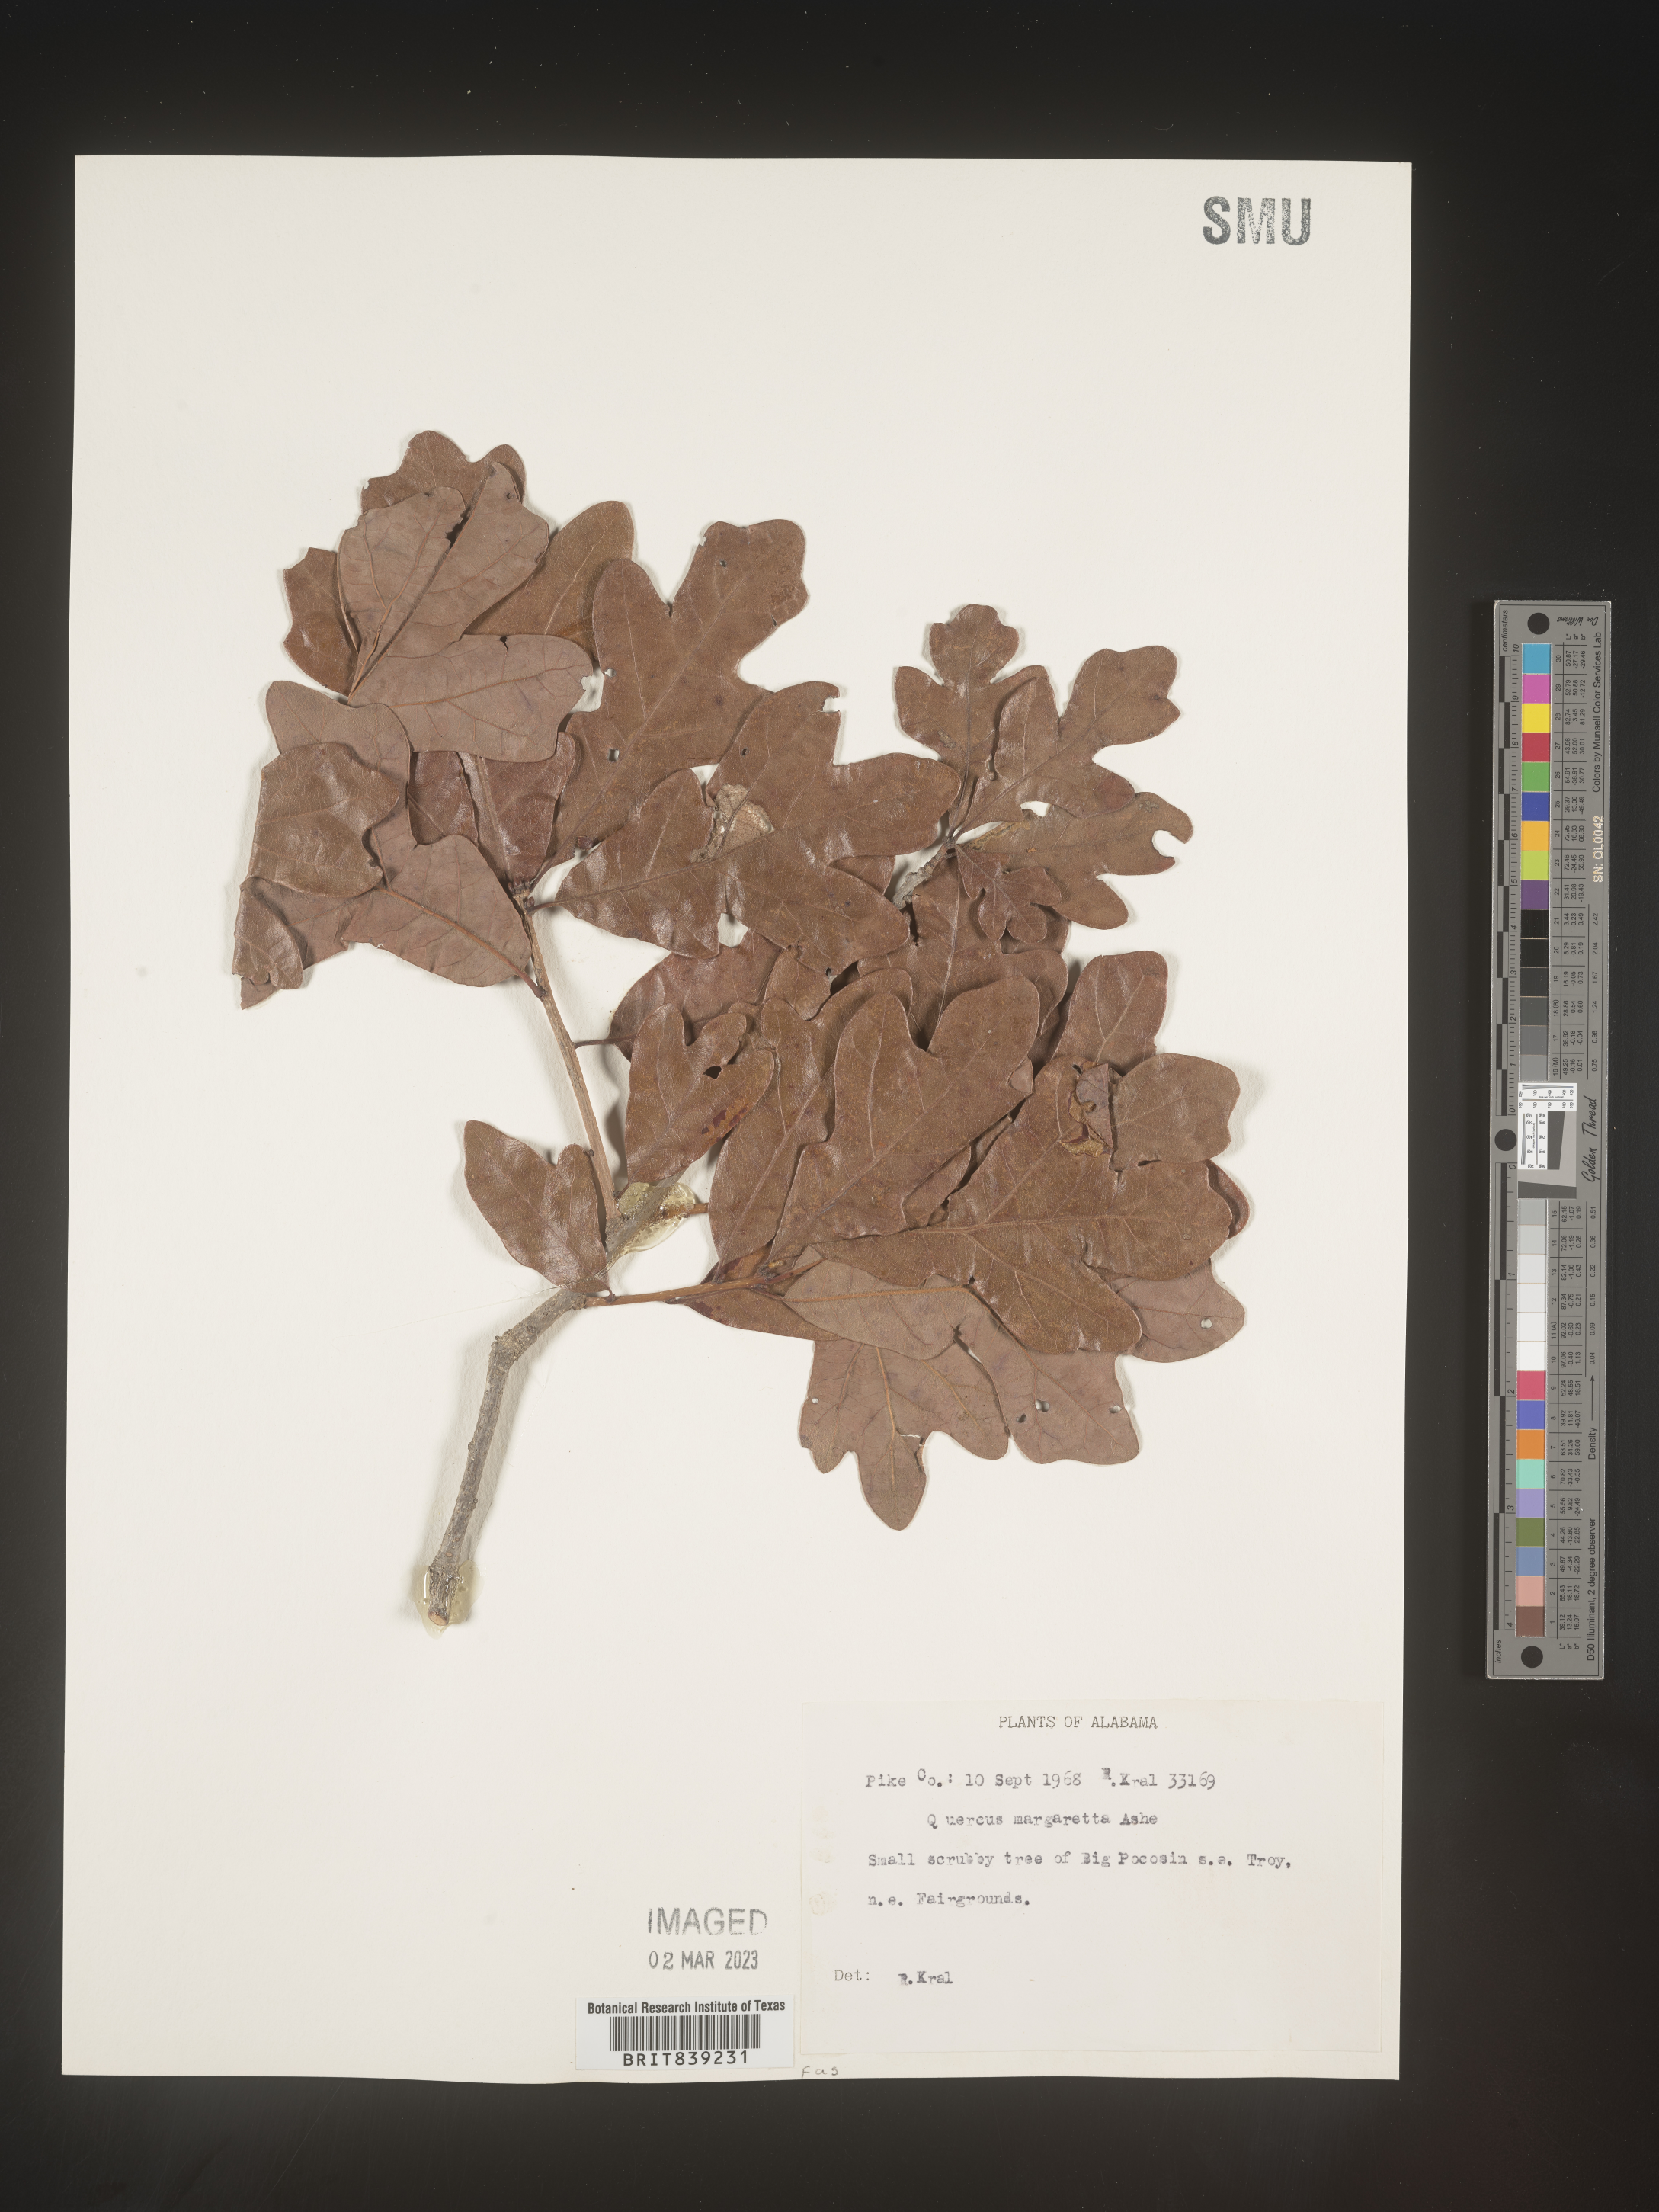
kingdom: Plantae
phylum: Tracheophyta
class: Magnoliopsida
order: Fagales
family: Fagaceae
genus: Quercus
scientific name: Quercus margaretta
